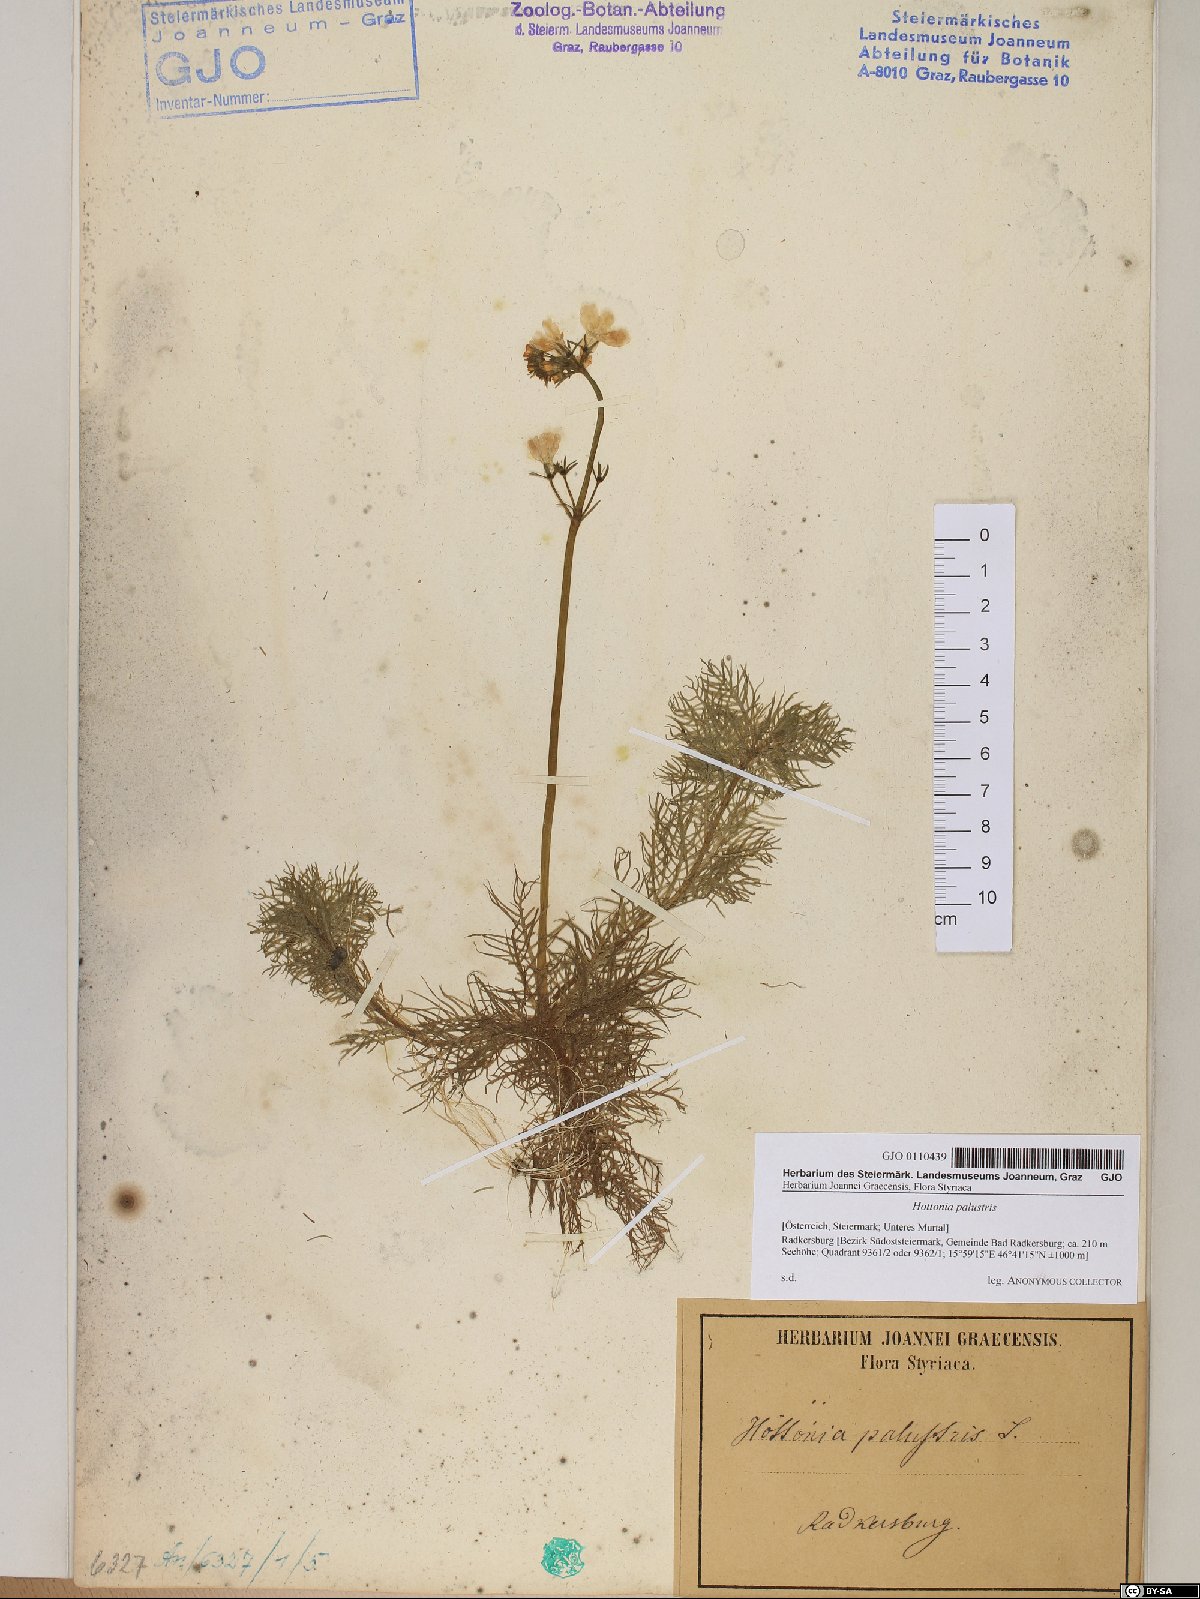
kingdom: Plantae
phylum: Tracheophyta
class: Magnoliopsida
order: Ericales
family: Primulaceae
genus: Hottonia
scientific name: Hottonia palustris
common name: Water-violet
